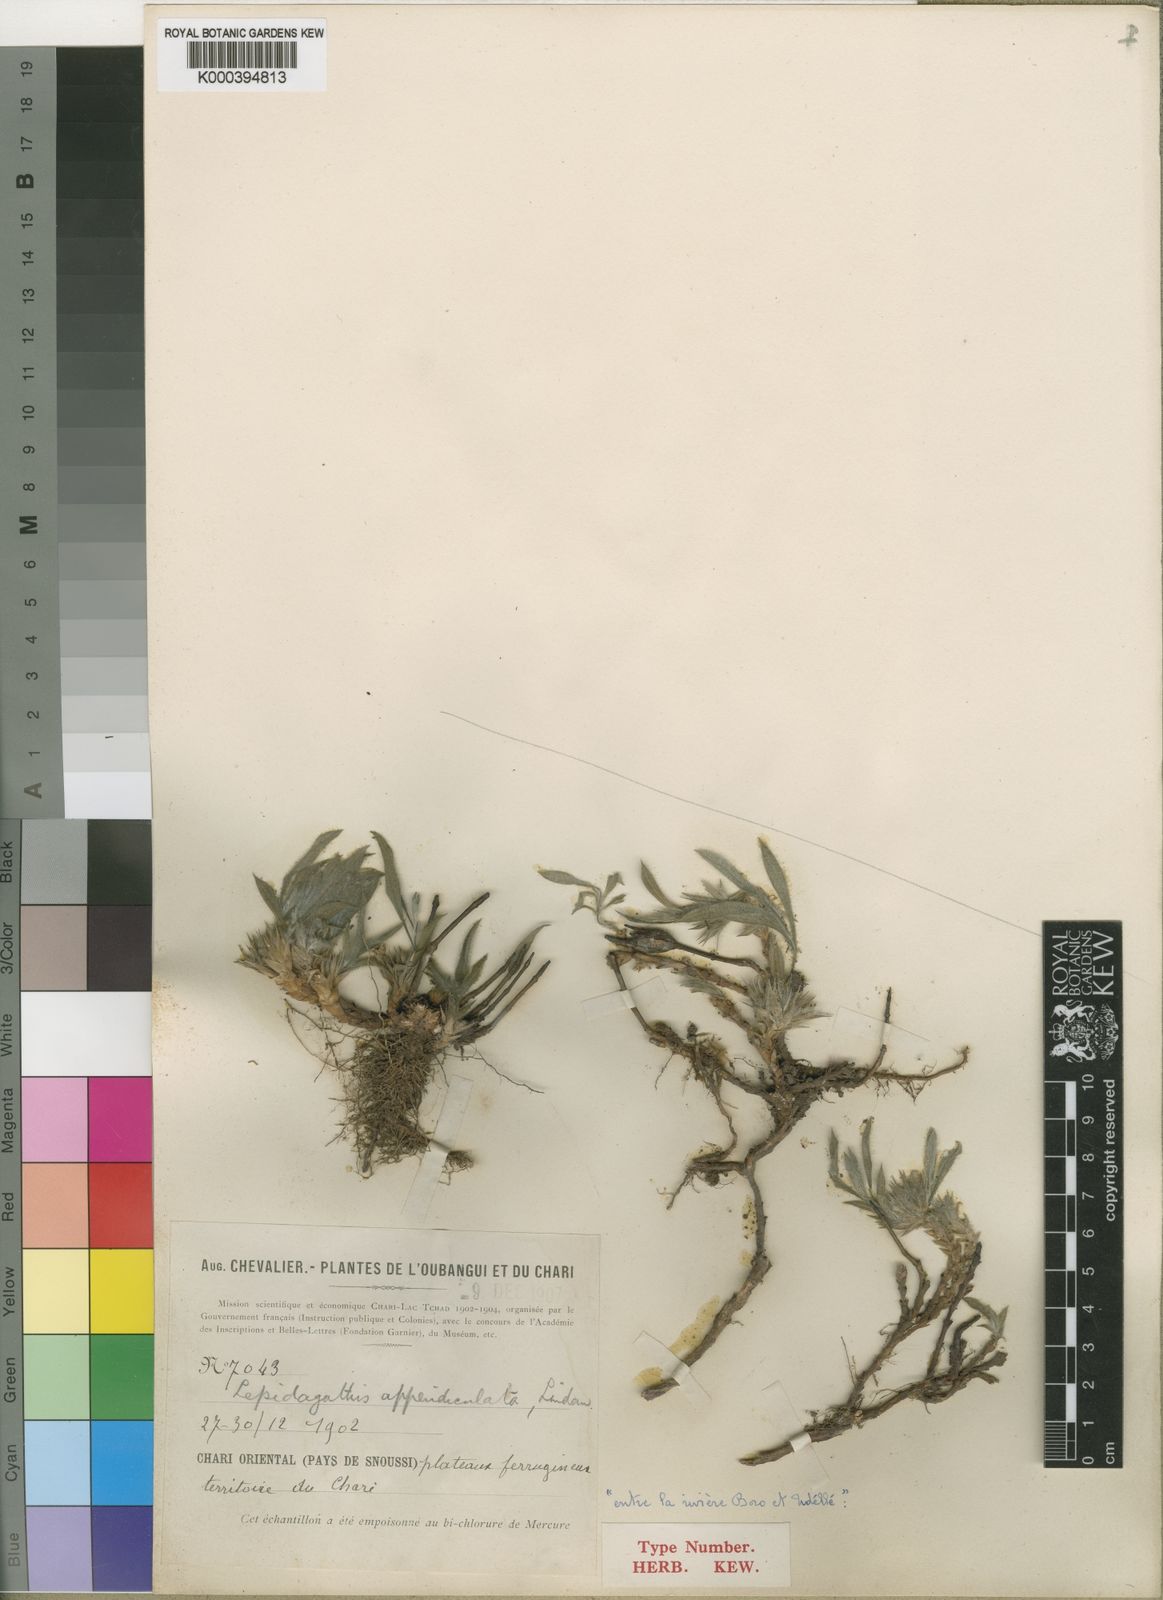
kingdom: Plantae
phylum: Tracheophyta
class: Magnoliopsida
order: Lamiales
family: Acanthaceae
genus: Lepidagathis
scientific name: Lepidagathis appendiculata
